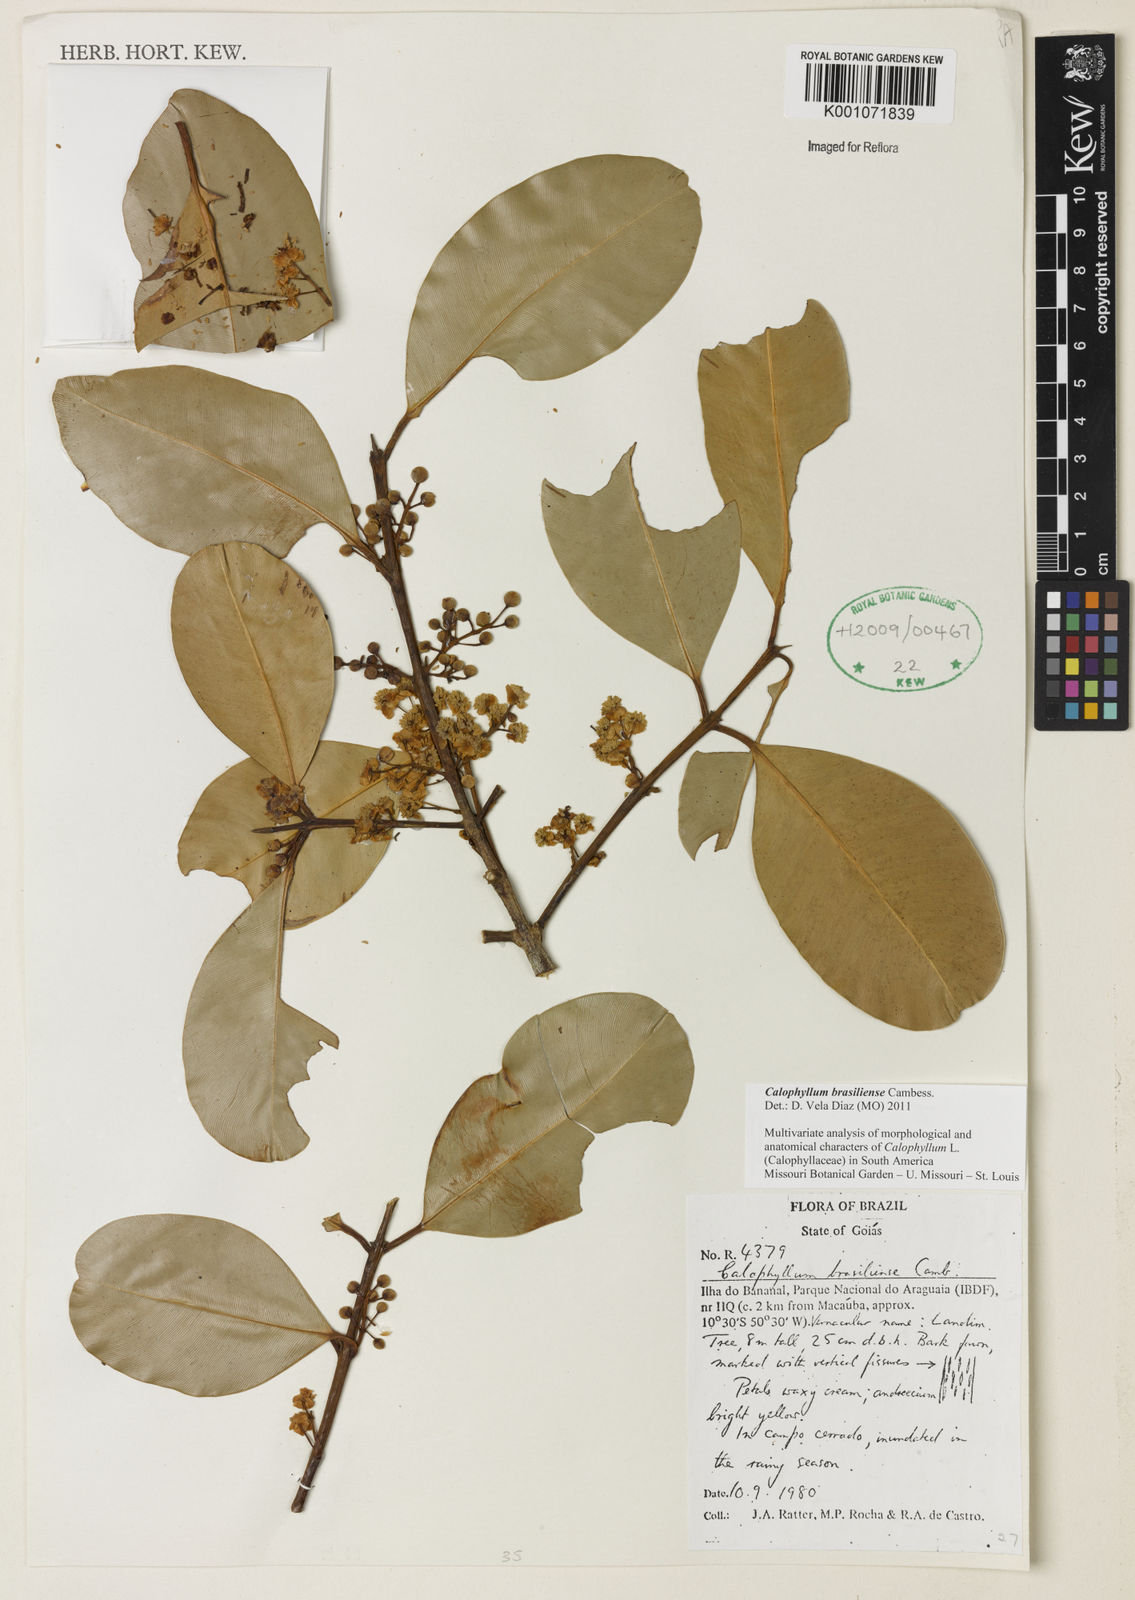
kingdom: Plantae
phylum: Tracheophyta
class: Magnoliopsida
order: Malpighiales
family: Calophyllaceae
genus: Calophyllum
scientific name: Calophyllum brasiliense
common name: Santa maria
